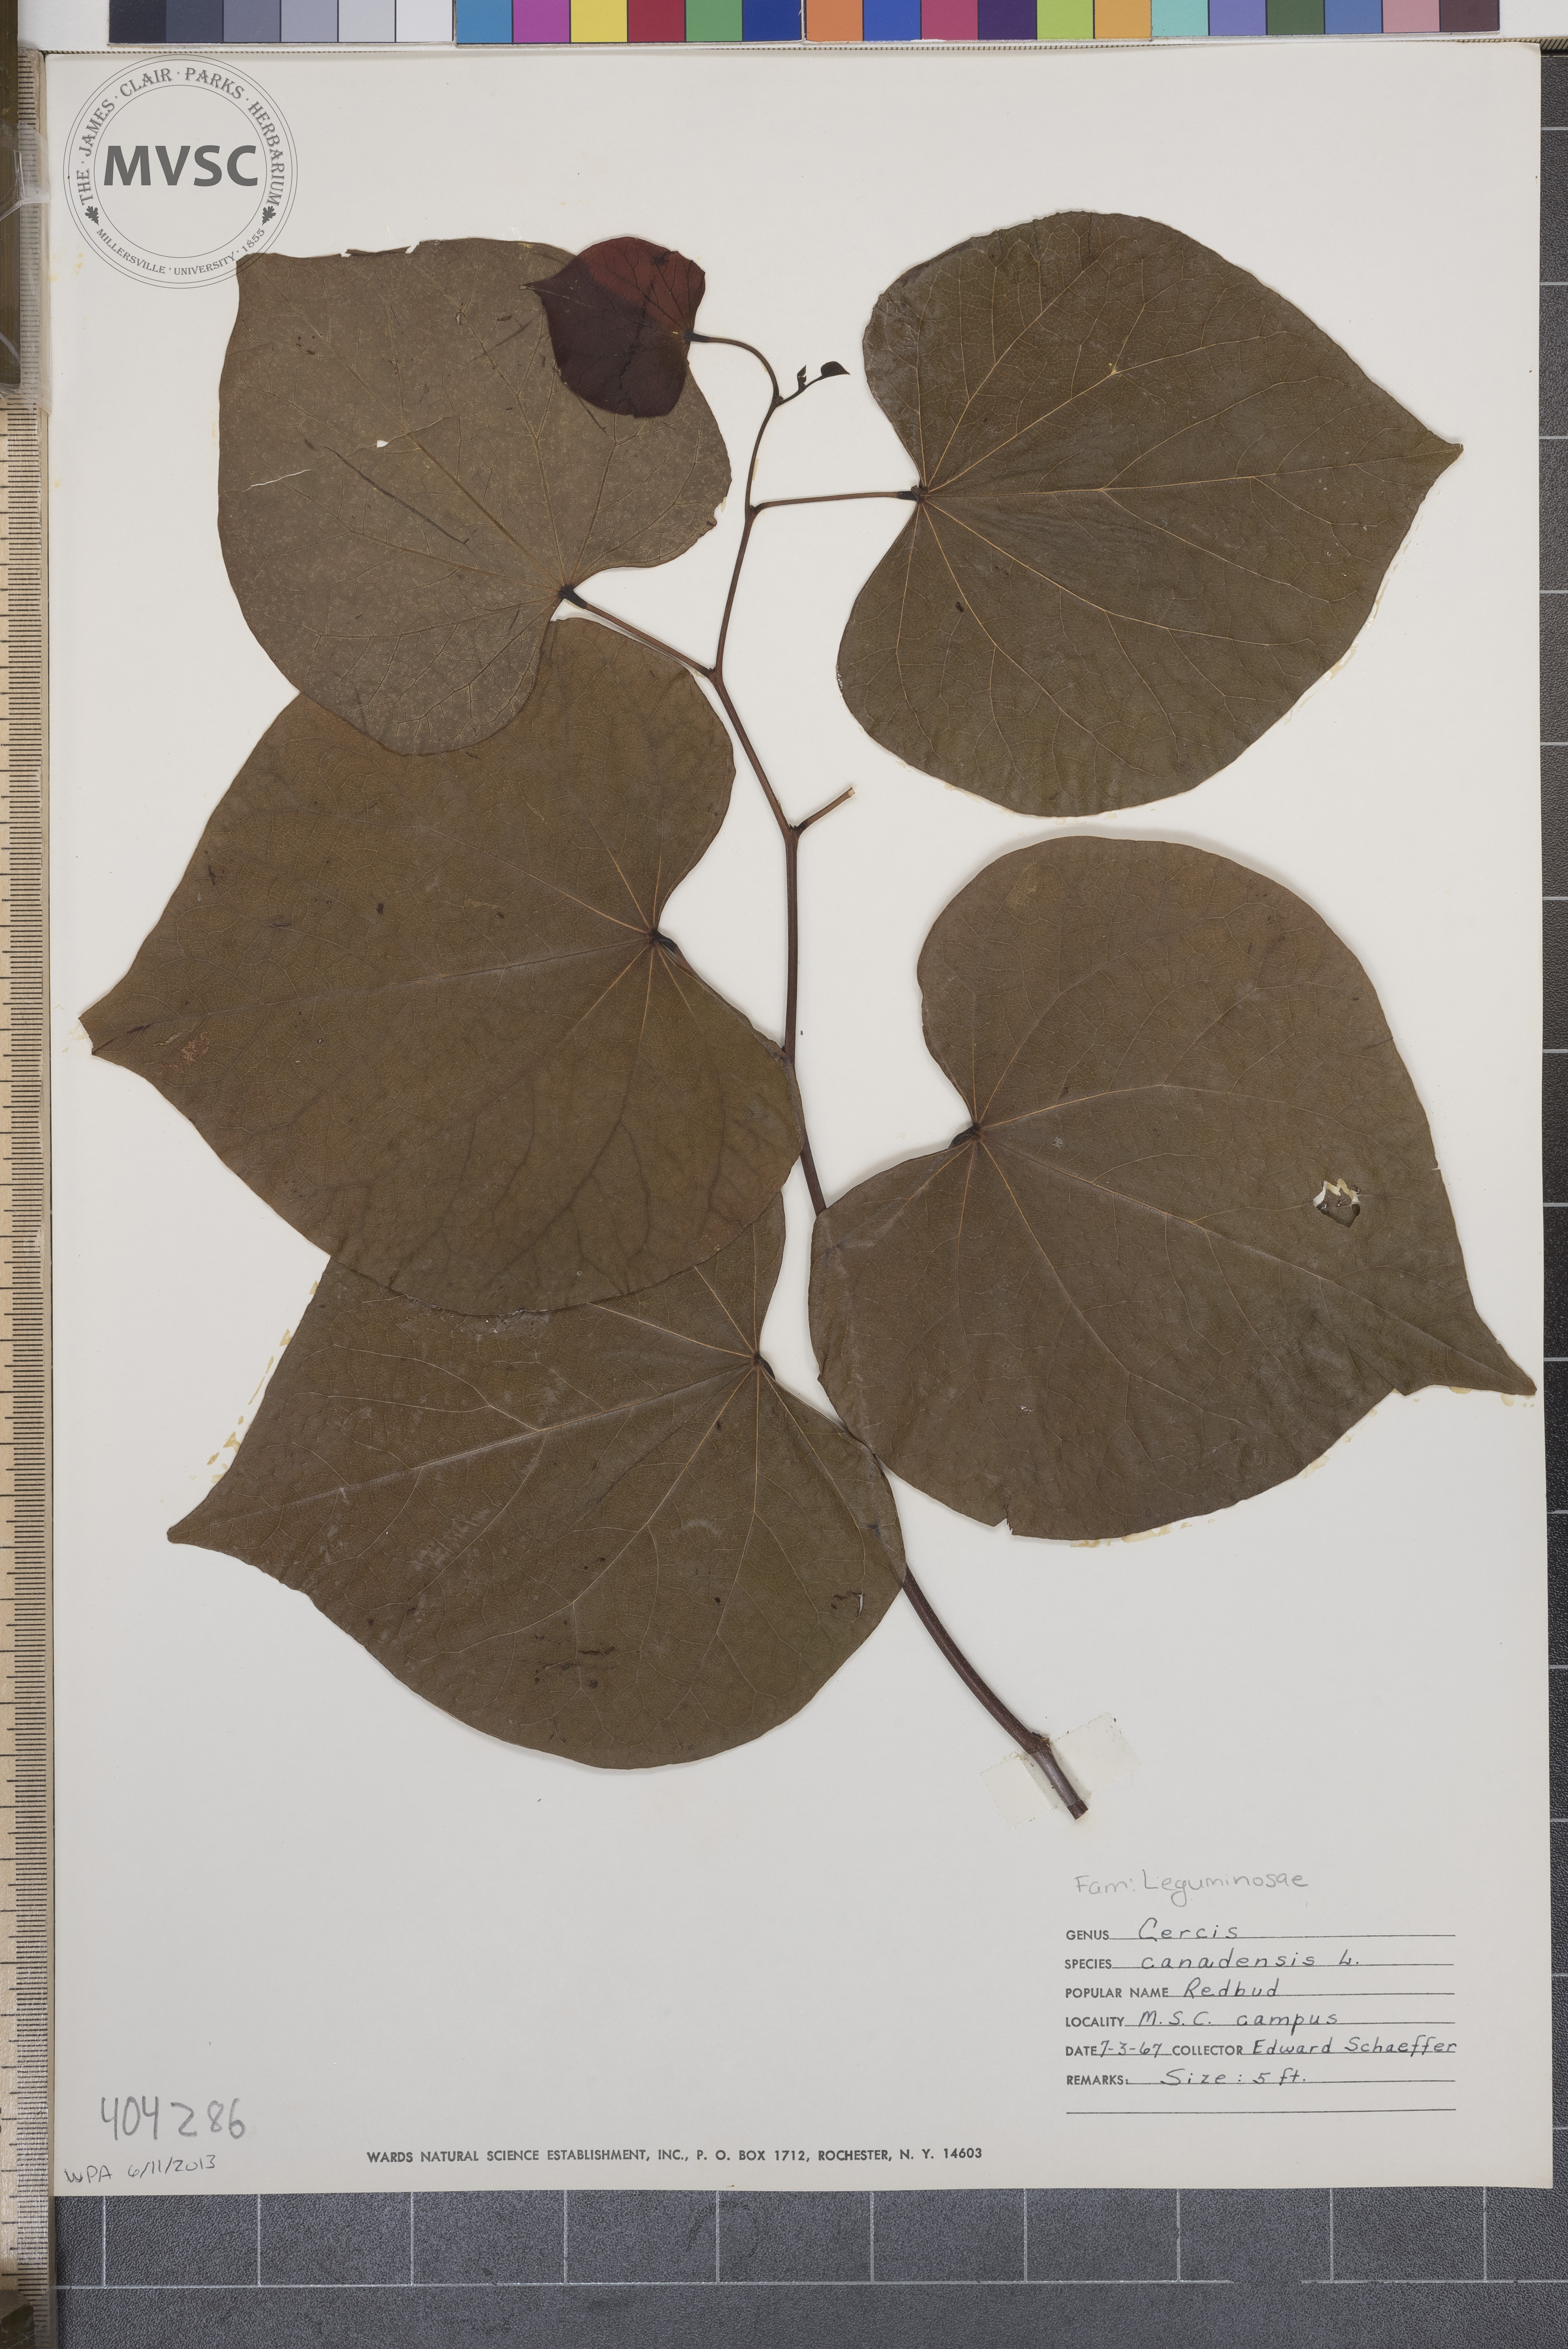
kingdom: Plantae
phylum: Tracheophyta
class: Magnoliopsida
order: Fabales
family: Fabaceae
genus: Cercis
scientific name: Cercis canadensis
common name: Redbud
